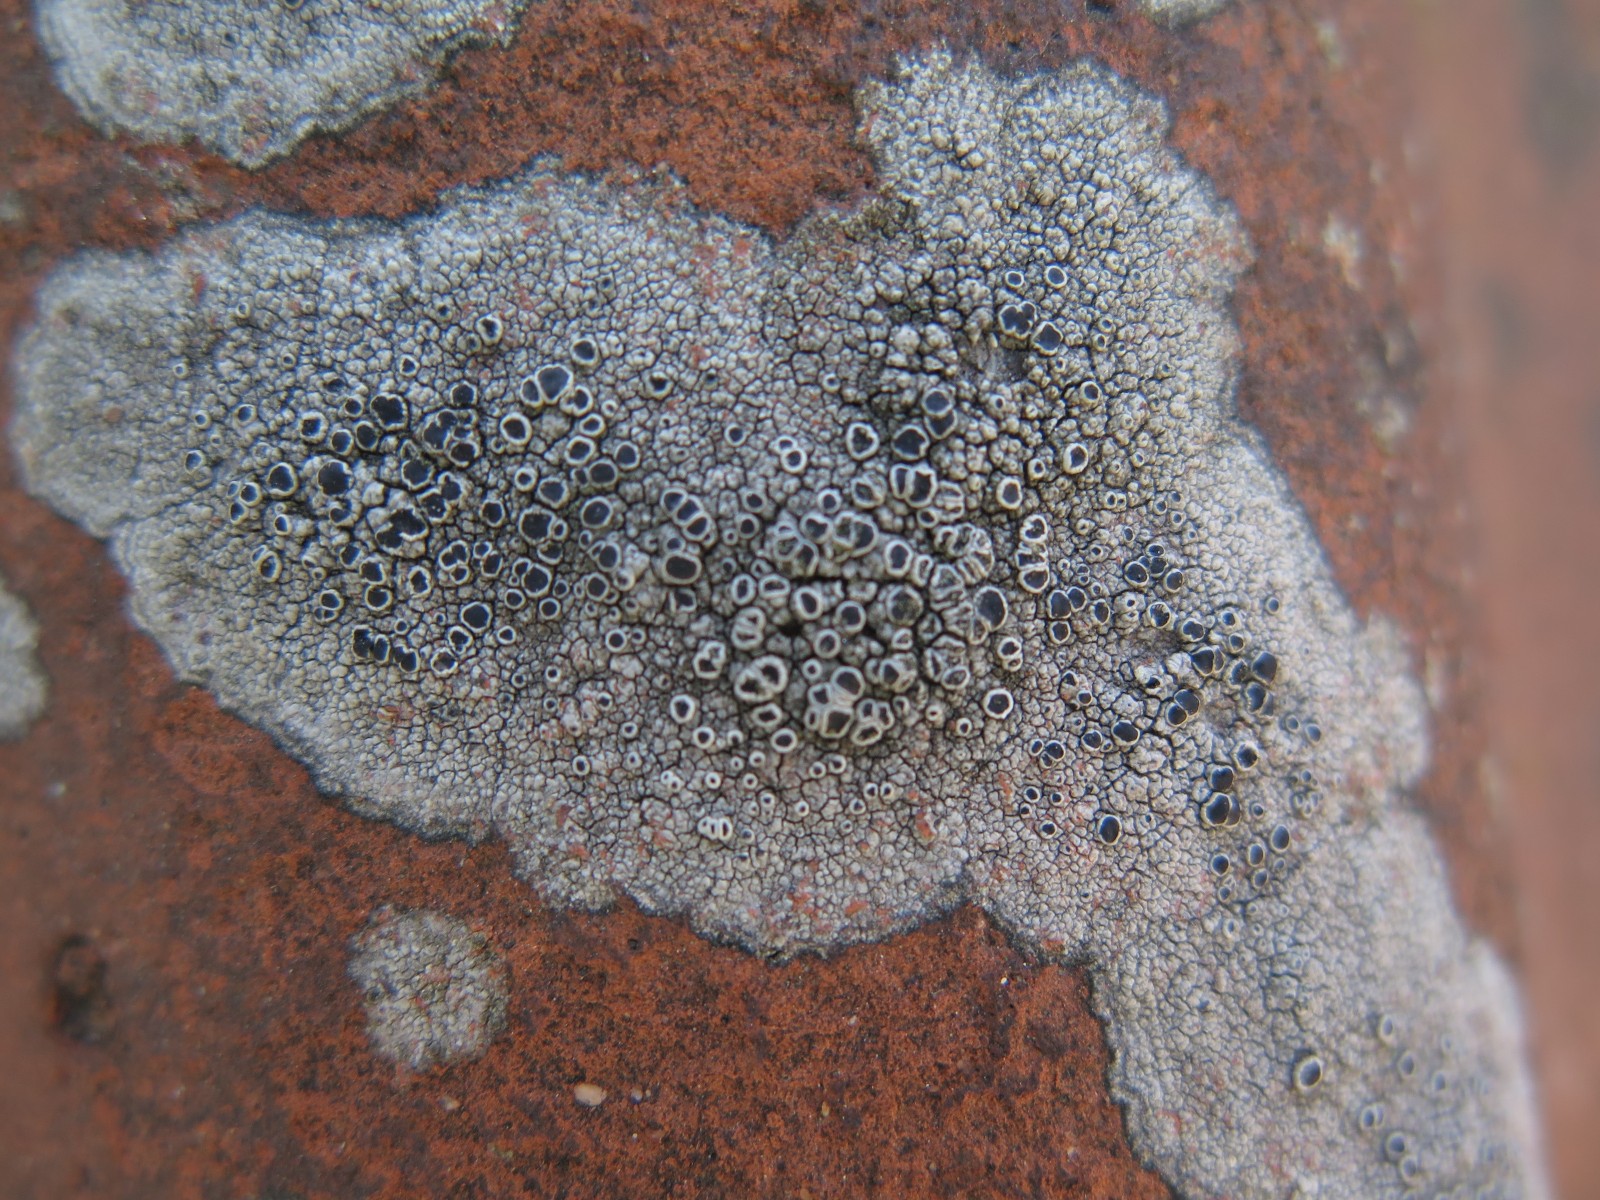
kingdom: Fungi
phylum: Ascomycota
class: Lecanoromycetes
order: Lecanorales
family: Tephromelataceae
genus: Tephromela
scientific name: Tephromela atra
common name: sortfrugtet kantskivelav
